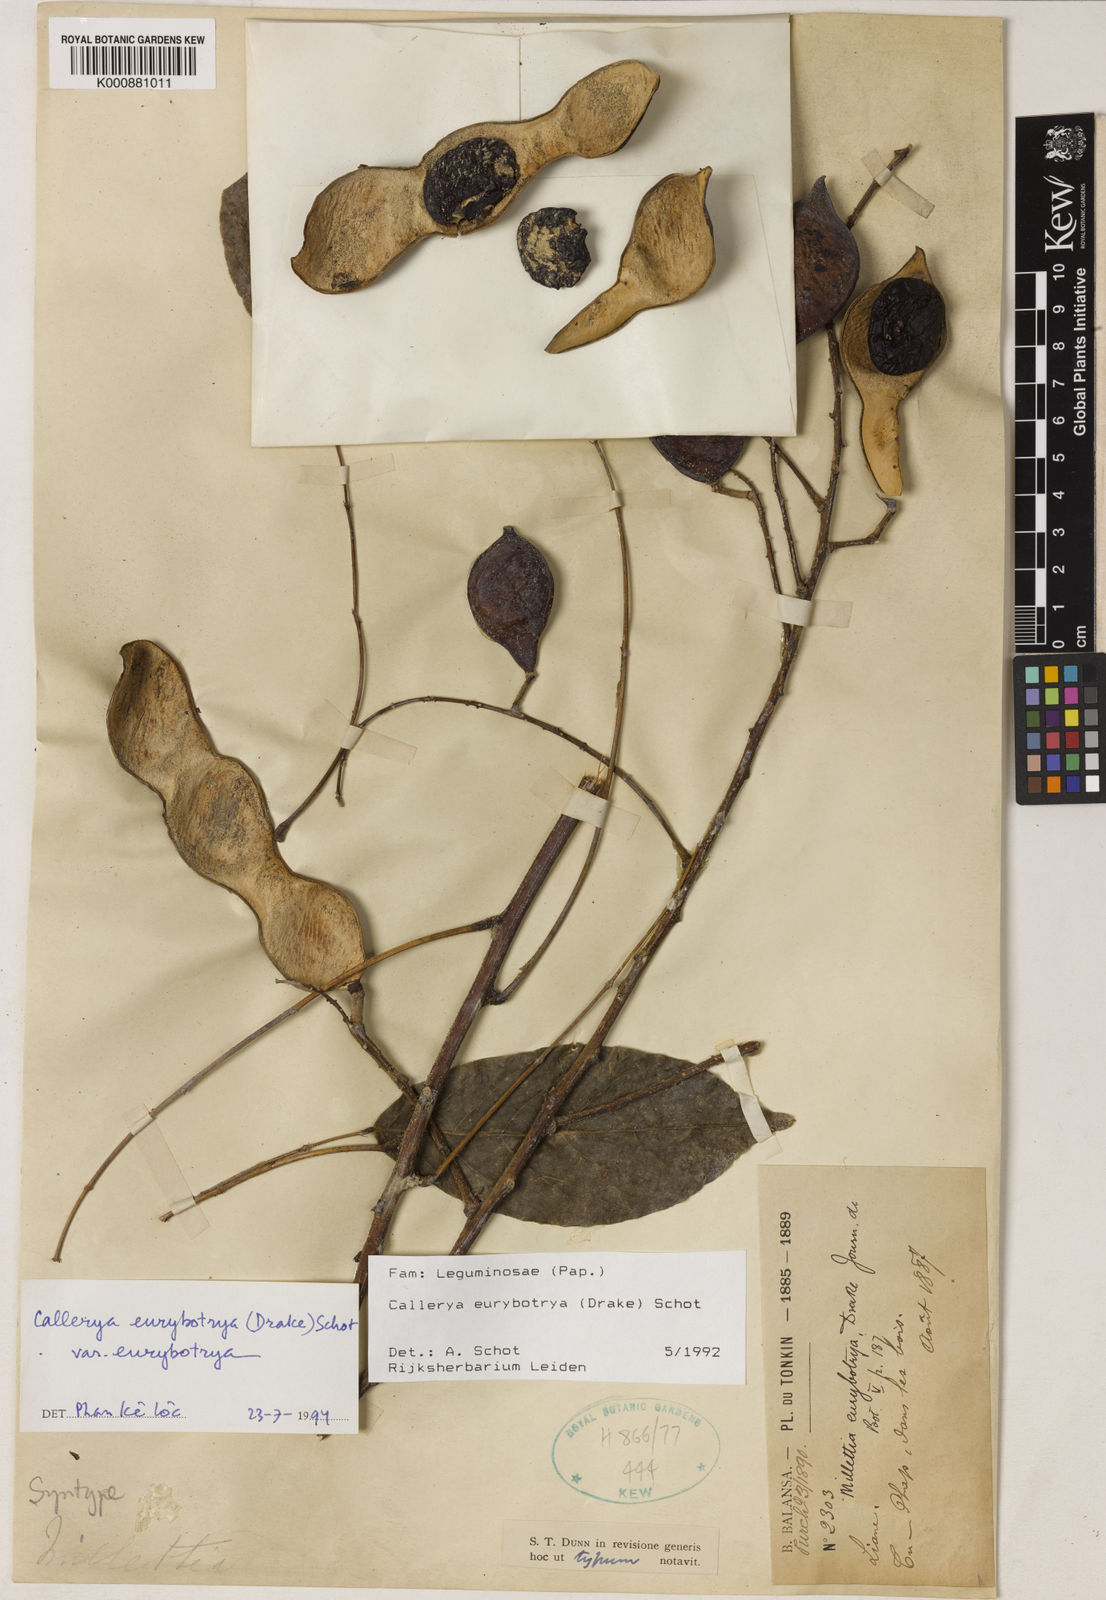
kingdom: Plantae
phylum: Tracheophyta
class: Magnoliopsida
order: Fabales
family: Fabaceae
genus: Wisteriopsis
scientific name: Wisteriopsis eurybotrya
